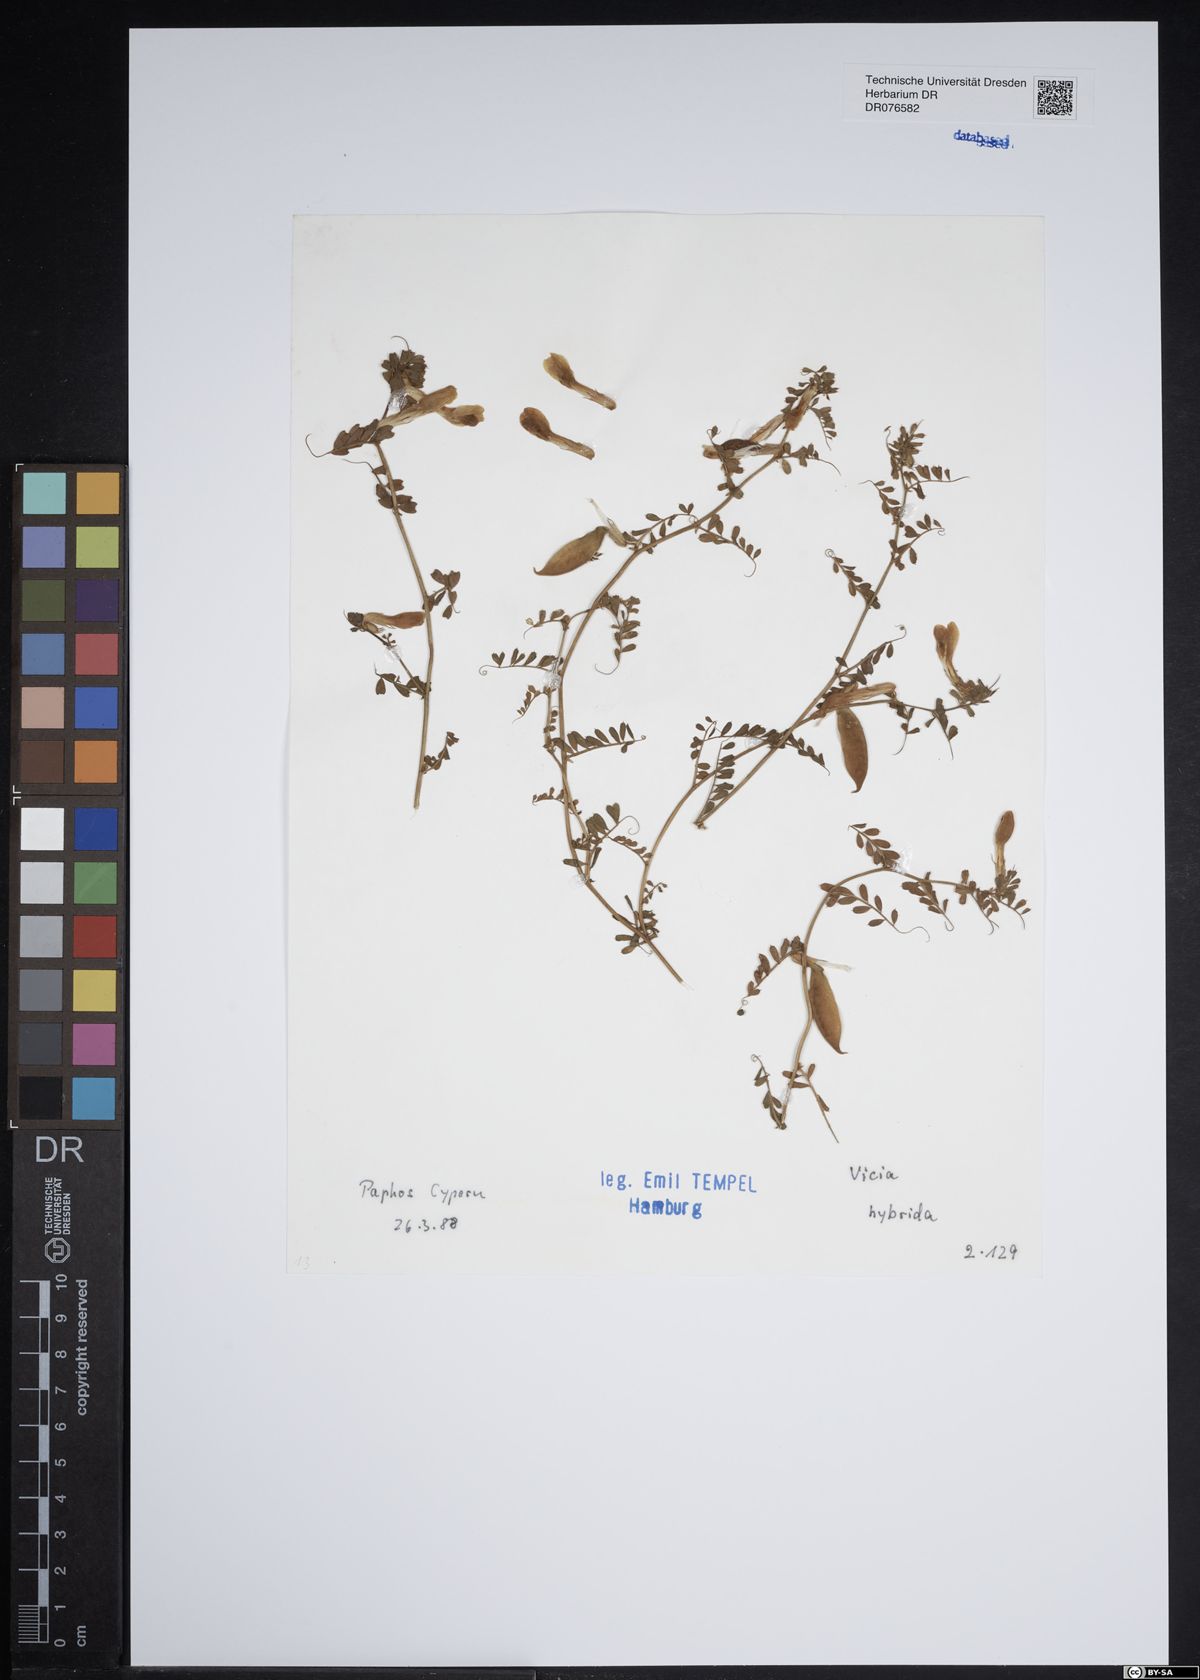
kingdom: Plantae
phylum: Tracheophyta
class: Magnoliopsida
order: Fabales
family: Fabaceae
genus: Vicia
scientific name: Vicia hybrida
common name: Hairy yellow vetch
